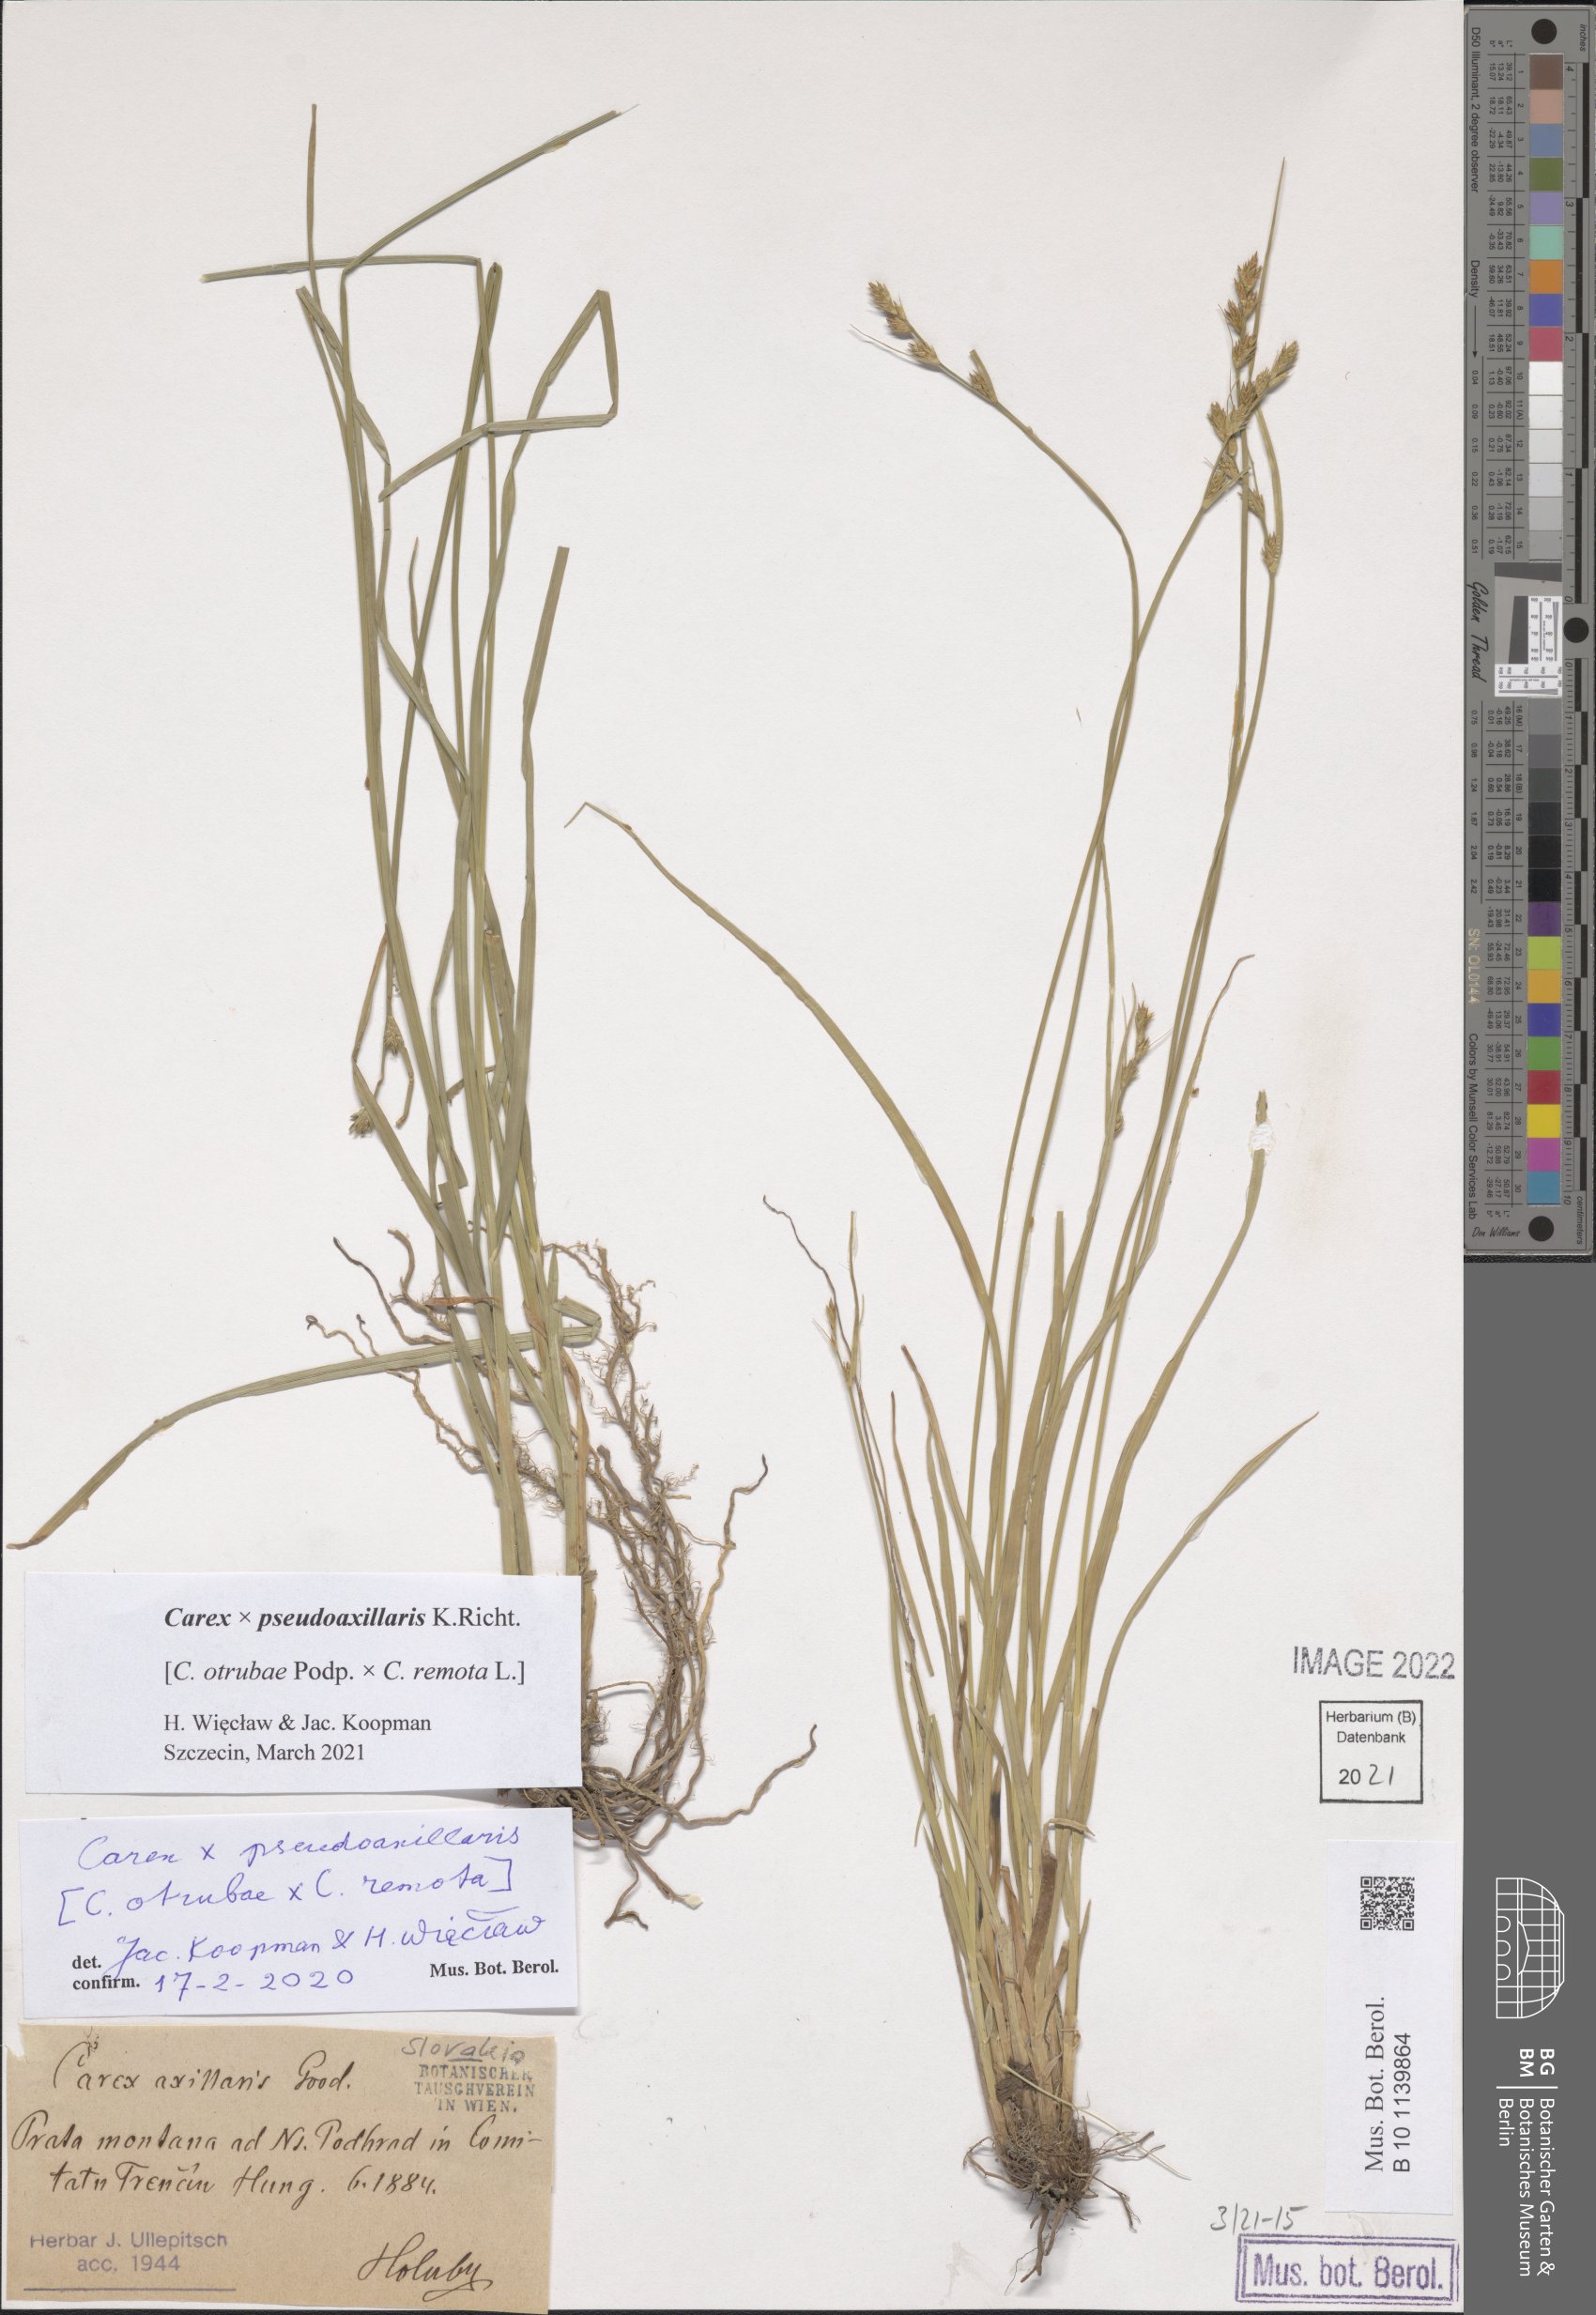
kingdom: Plantae
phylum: Tracheophyta
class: Liliopsida
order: Poales
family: Cyperaceae
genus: Carex
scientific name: Carex pseudoaxillaris
